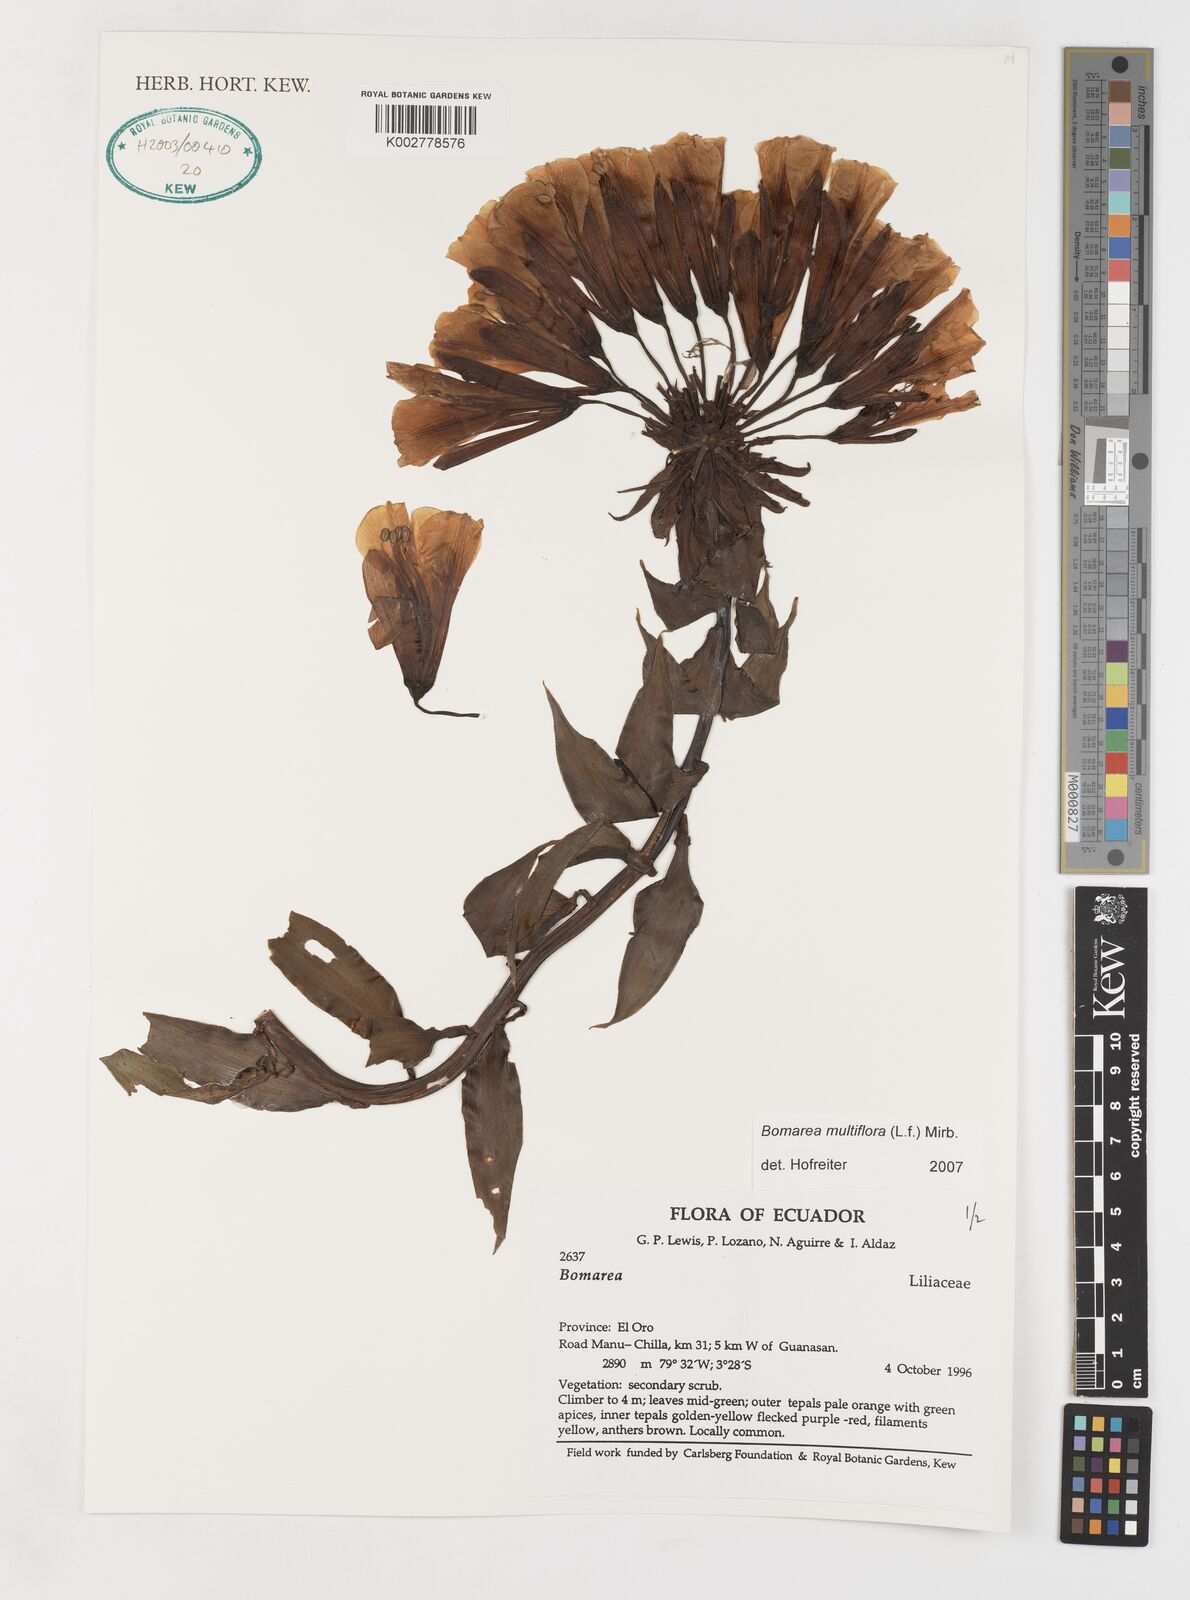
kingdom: Plantae
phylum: Tracheophyta
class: Liliopsida
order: Liliales
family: Alstroemeriaceae
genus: Bomarea
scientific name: Bomarea multiflora
